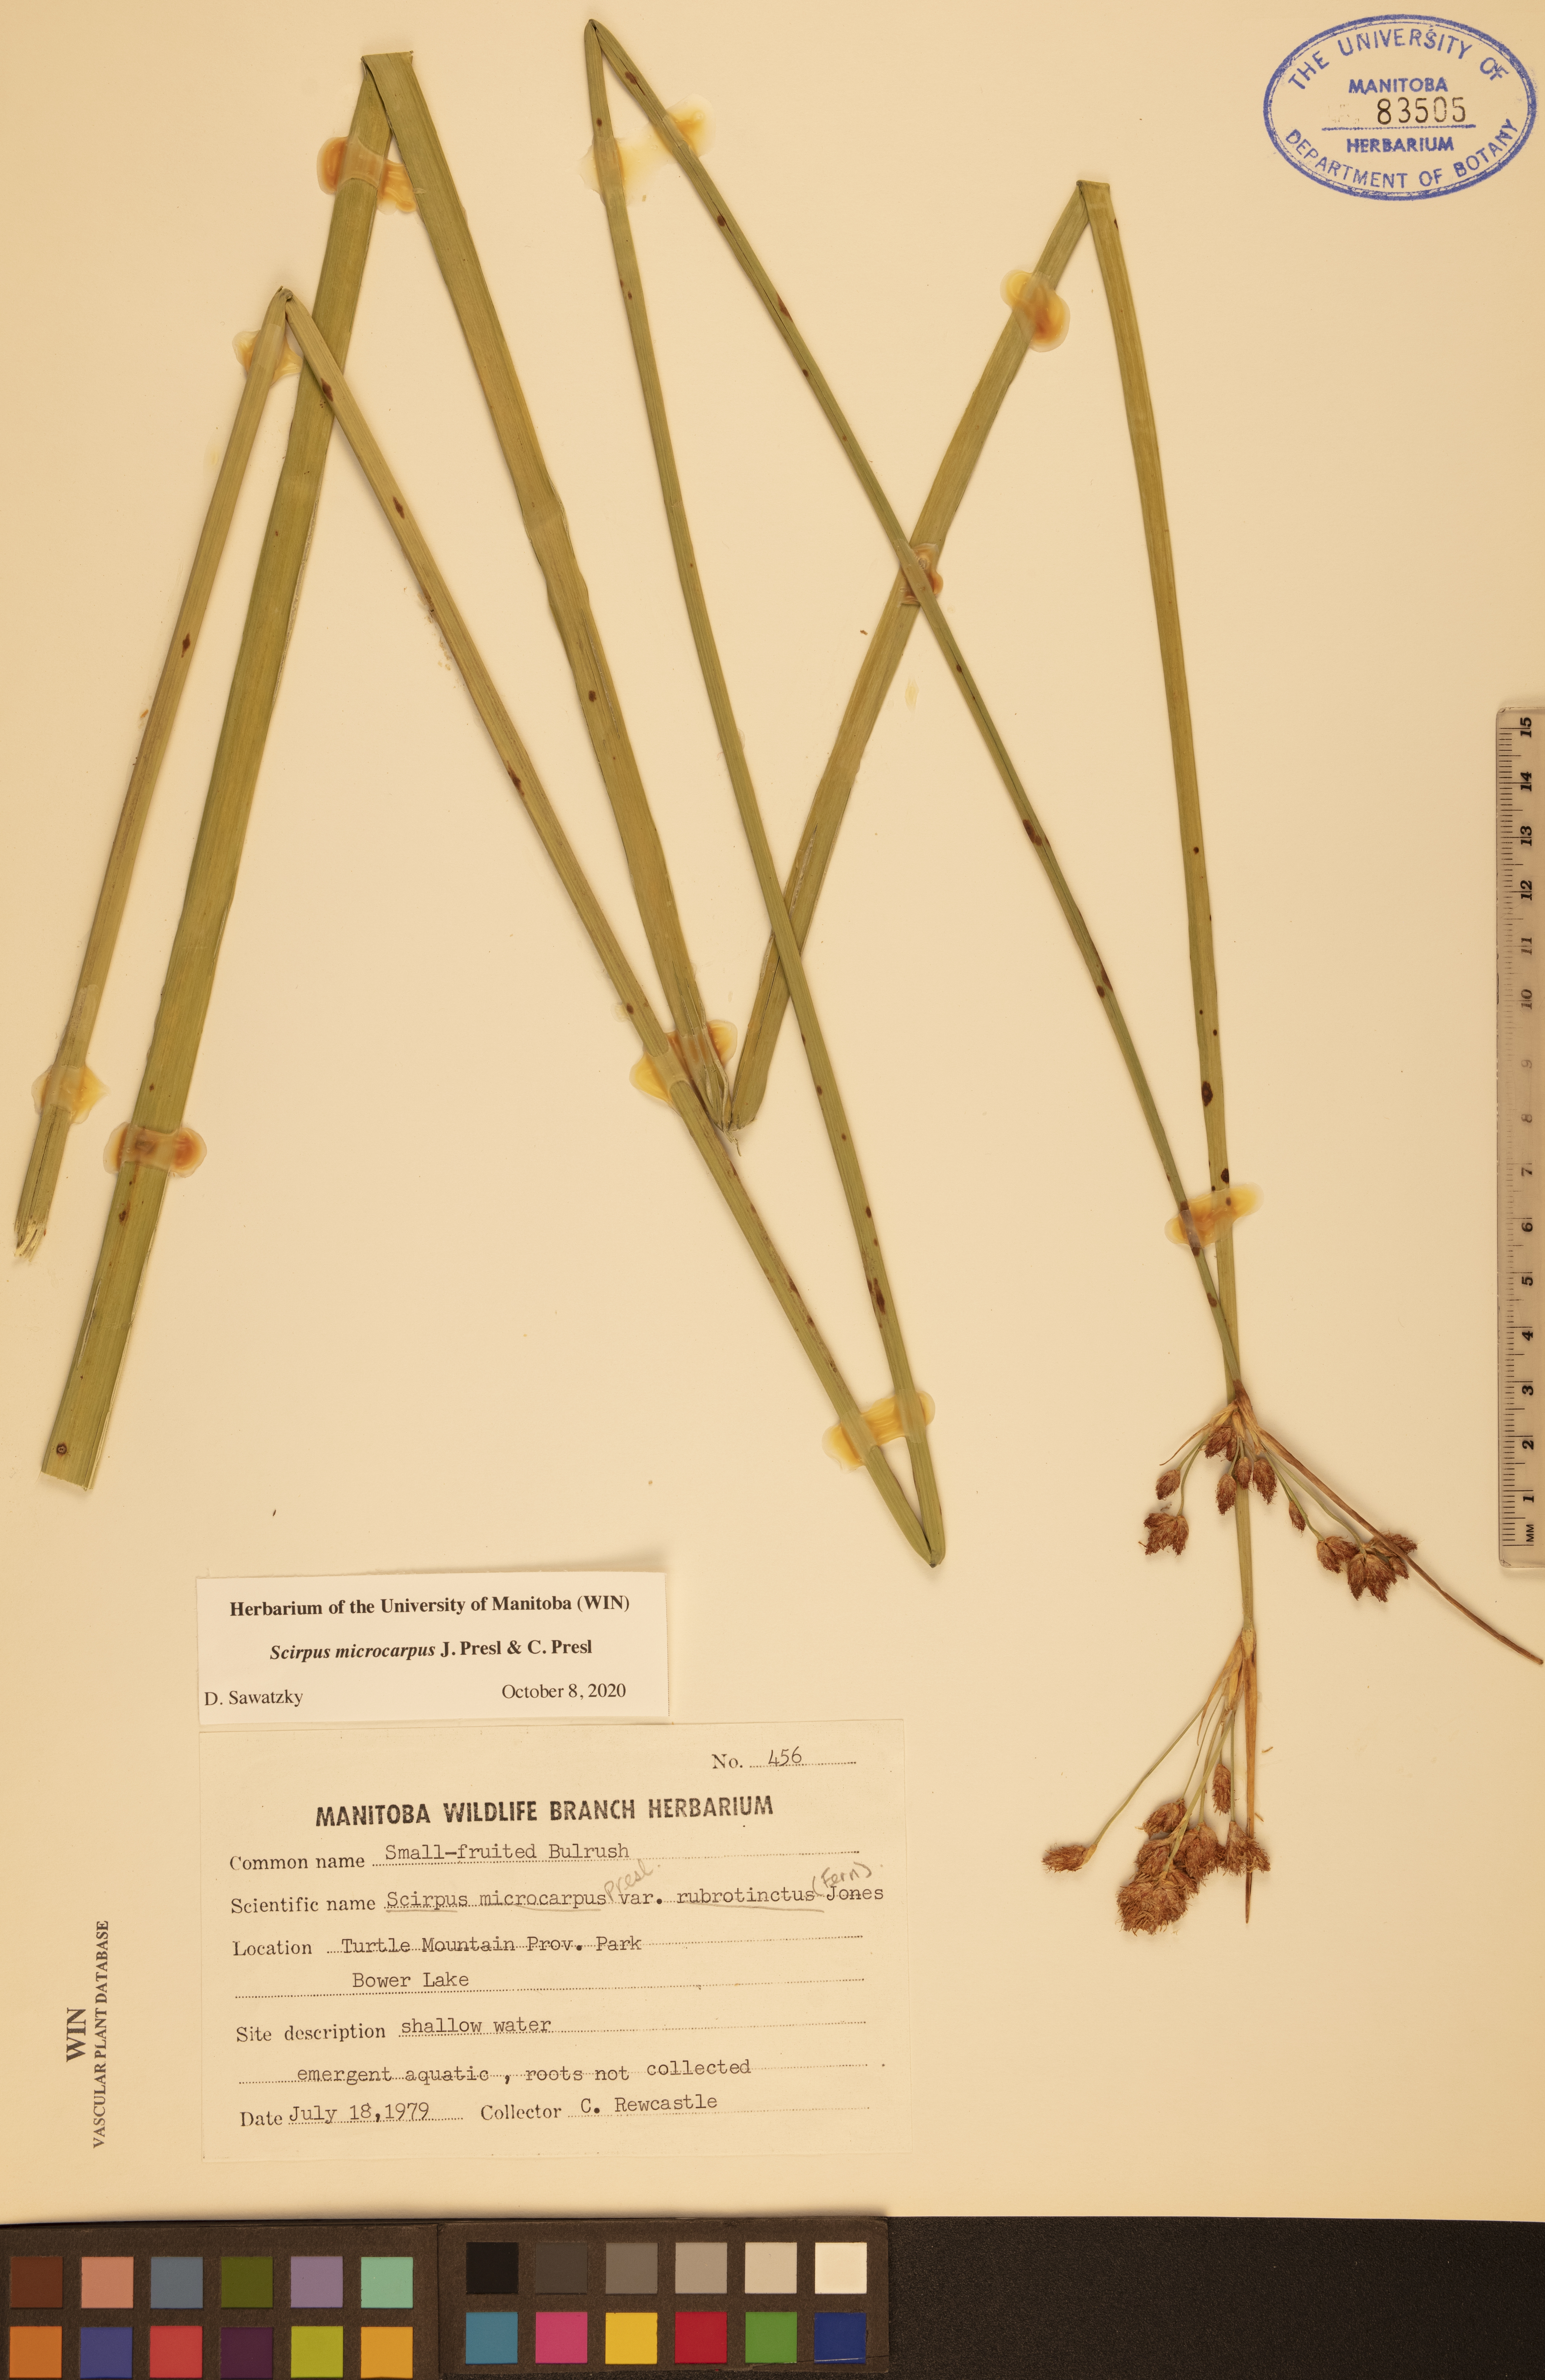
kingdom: Plantae
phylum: Tracheophyta
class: Liliopsida
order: Poales
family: Cyperaceae
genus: Scirpus
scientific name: Scirpus microcarpus
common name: Panicled bulrush
